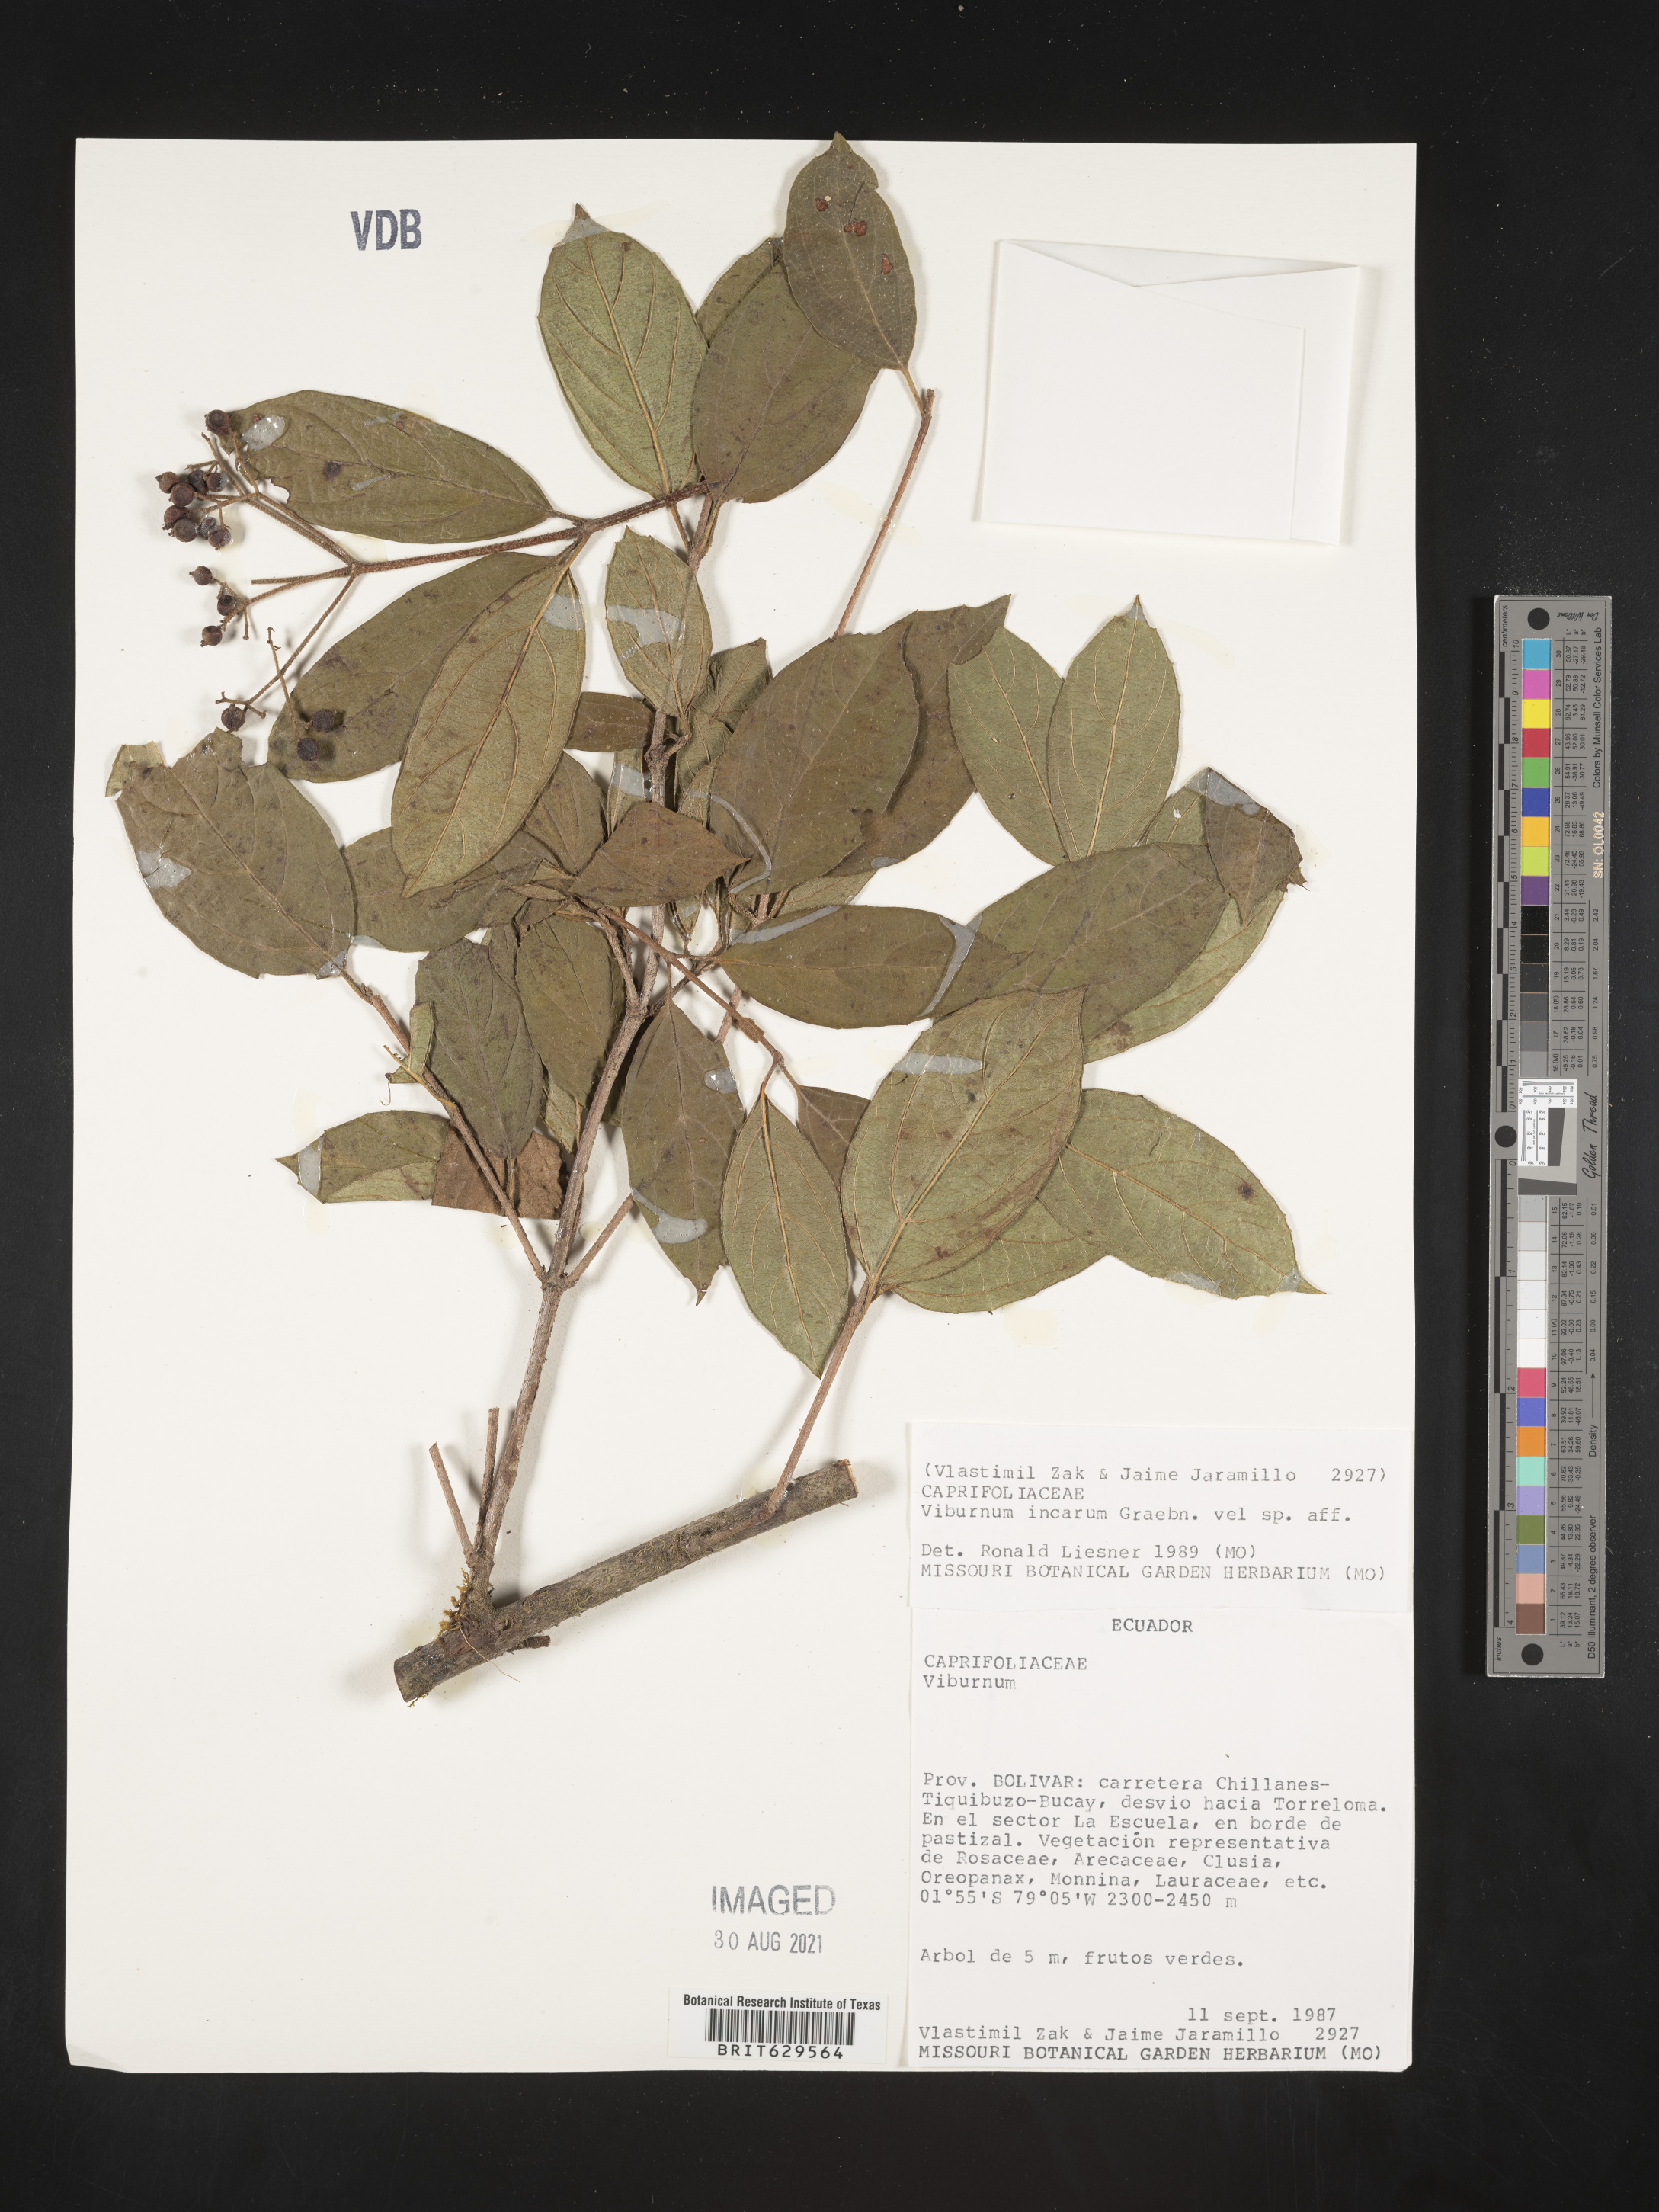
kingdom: Plantae
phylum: Tracheophyta
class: Magnoliopsida
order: Dipsacales
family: Viburnaceae
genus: Viburnum
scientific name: Viburnum hallii
